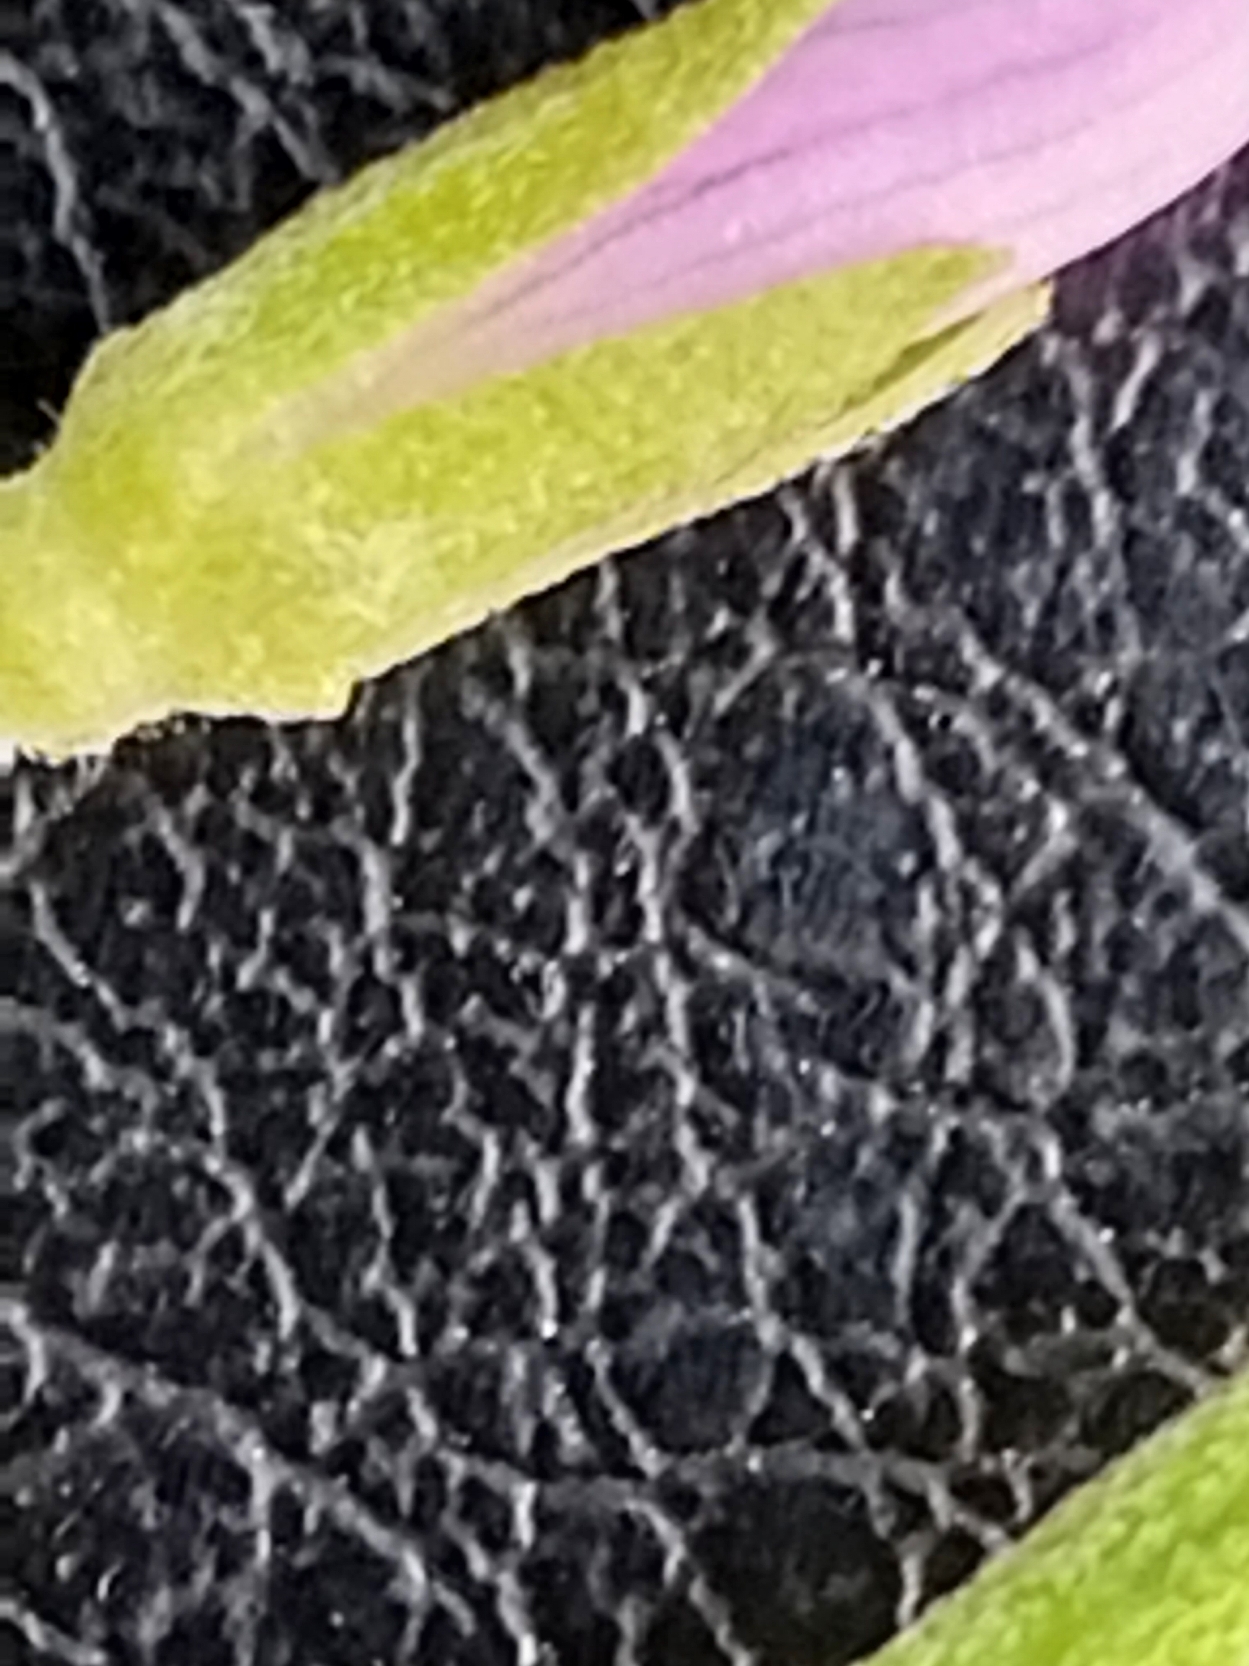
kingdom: Plantae
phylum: Tracheophyta
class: Magnoliopsida
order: Myrtales
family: Onagraceae
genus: Epilobium
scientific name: Epilobium obscurum
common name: Ris-dueurt
